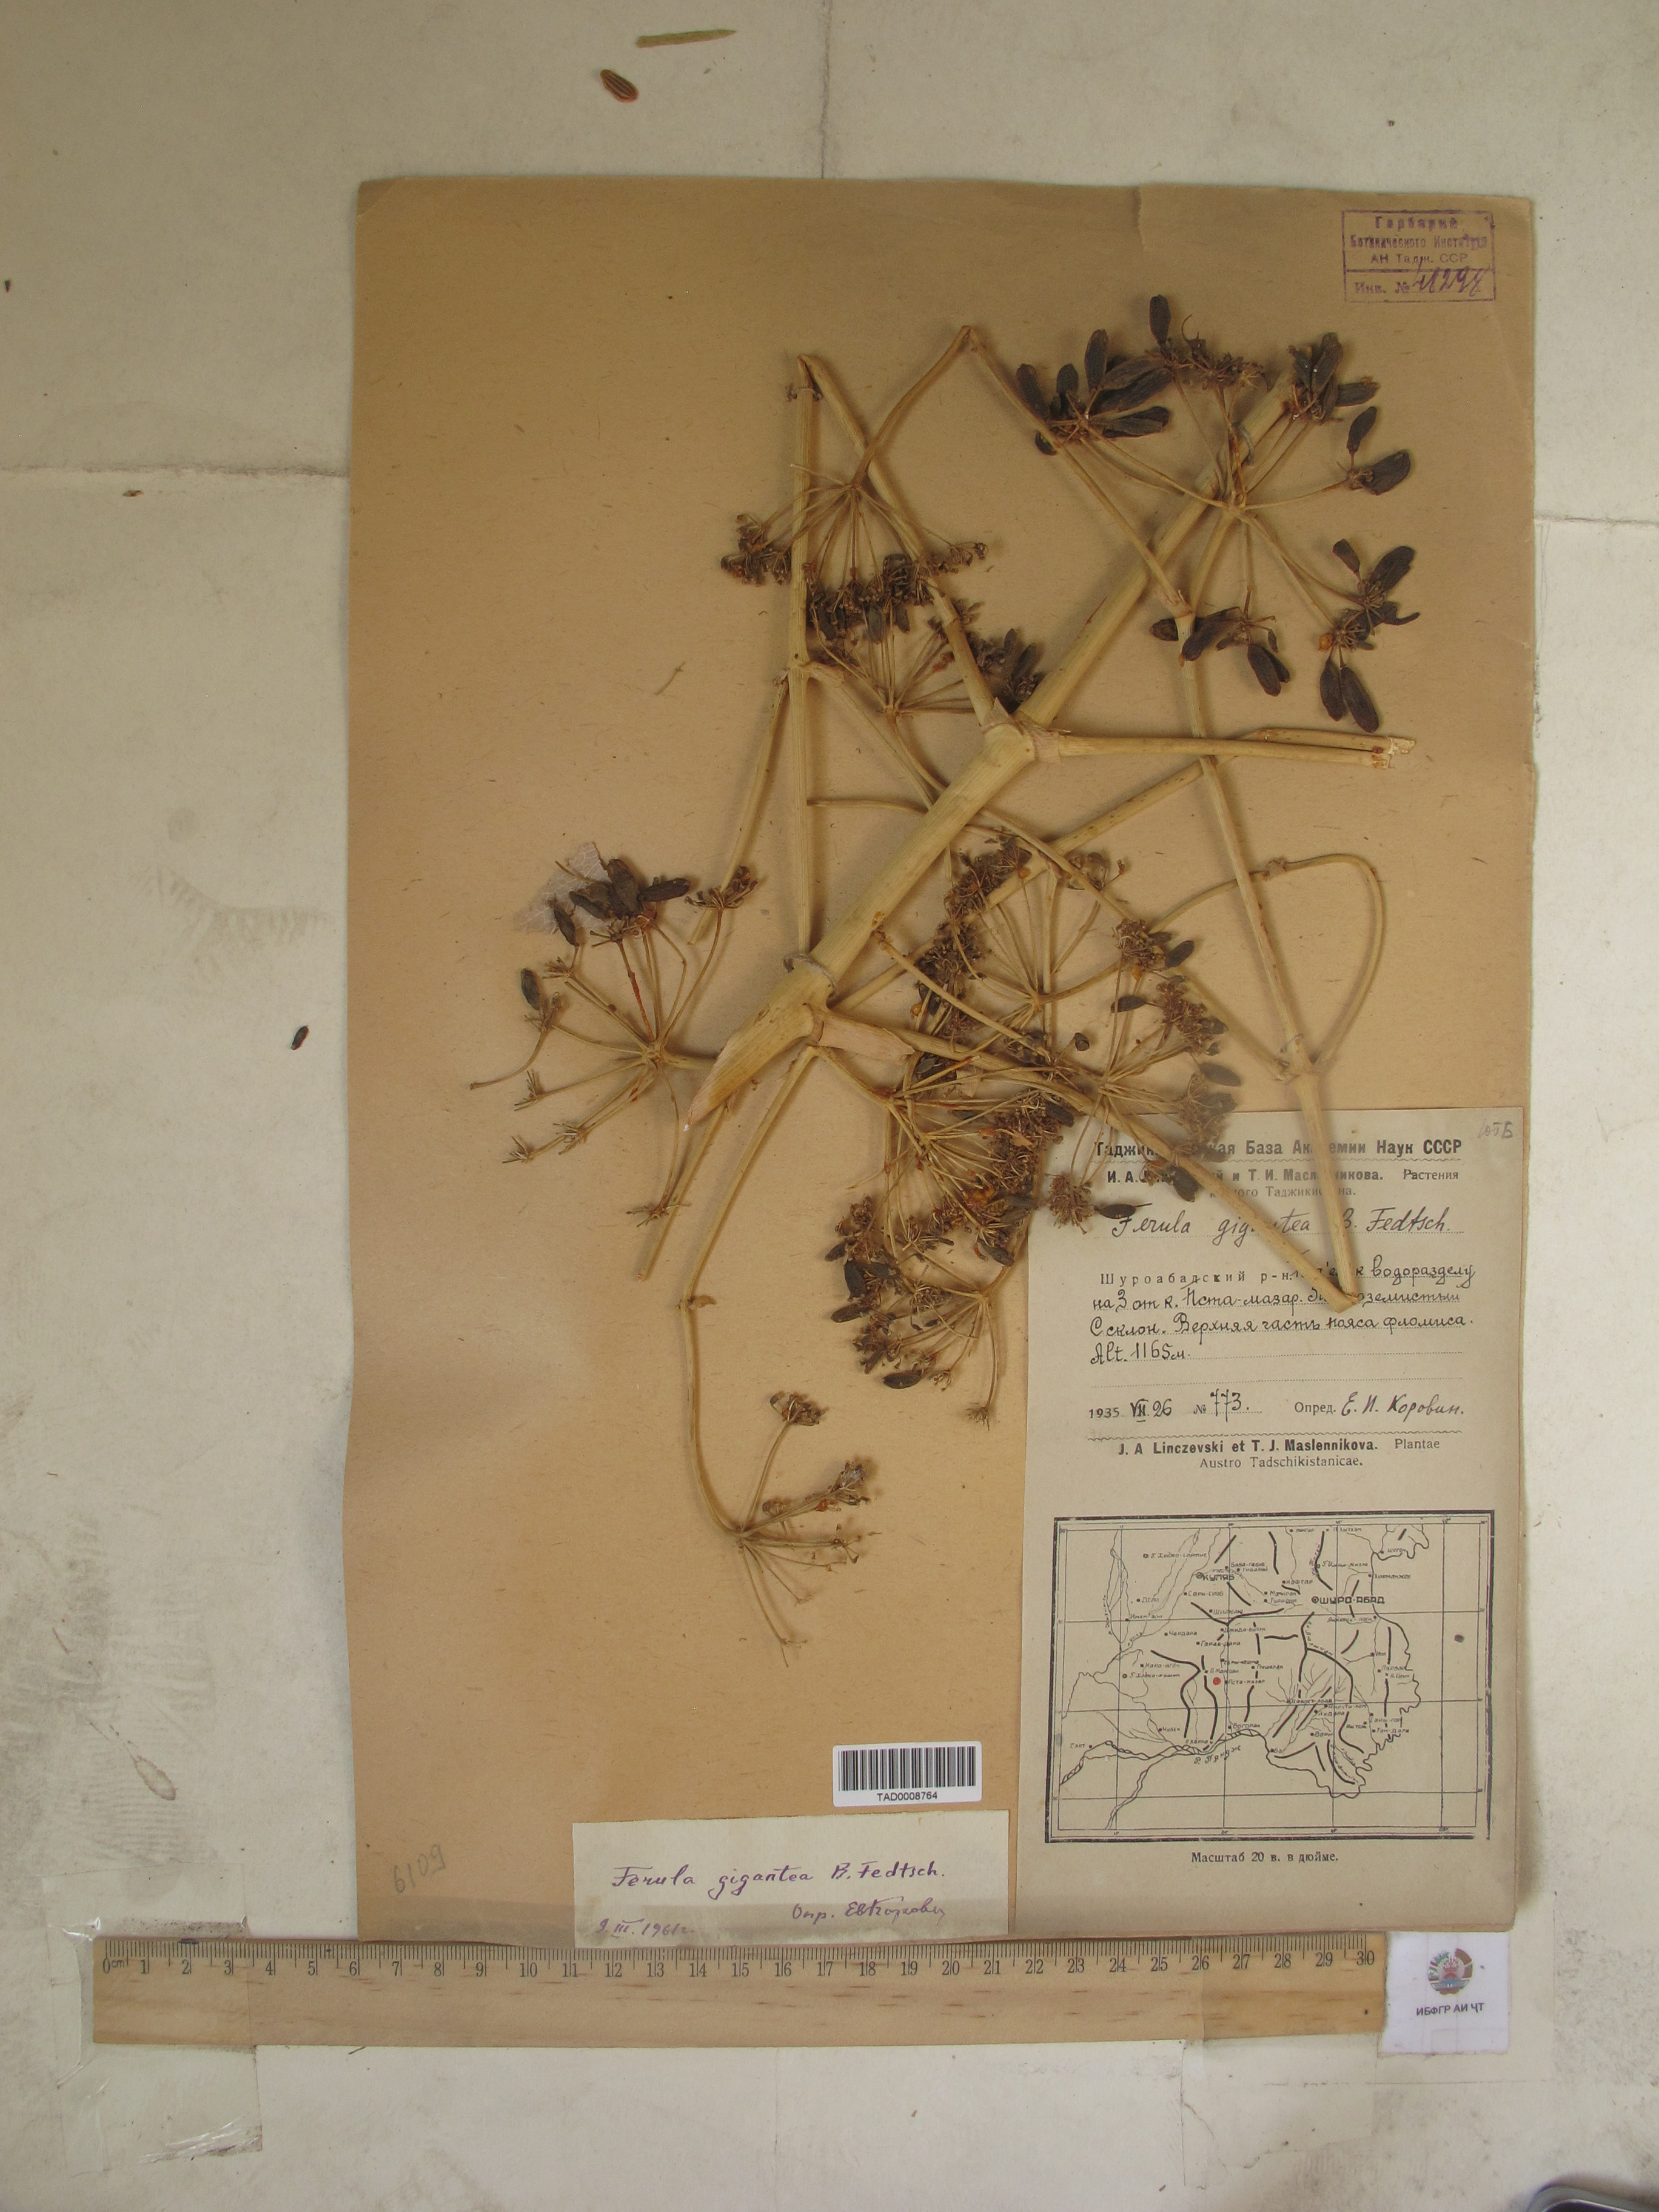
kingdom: Plantae
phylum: Tracheophyta
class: Magnoliopsida
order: Apiales
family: Apiaceae
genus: Ferula
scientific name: Ferula gigantea
